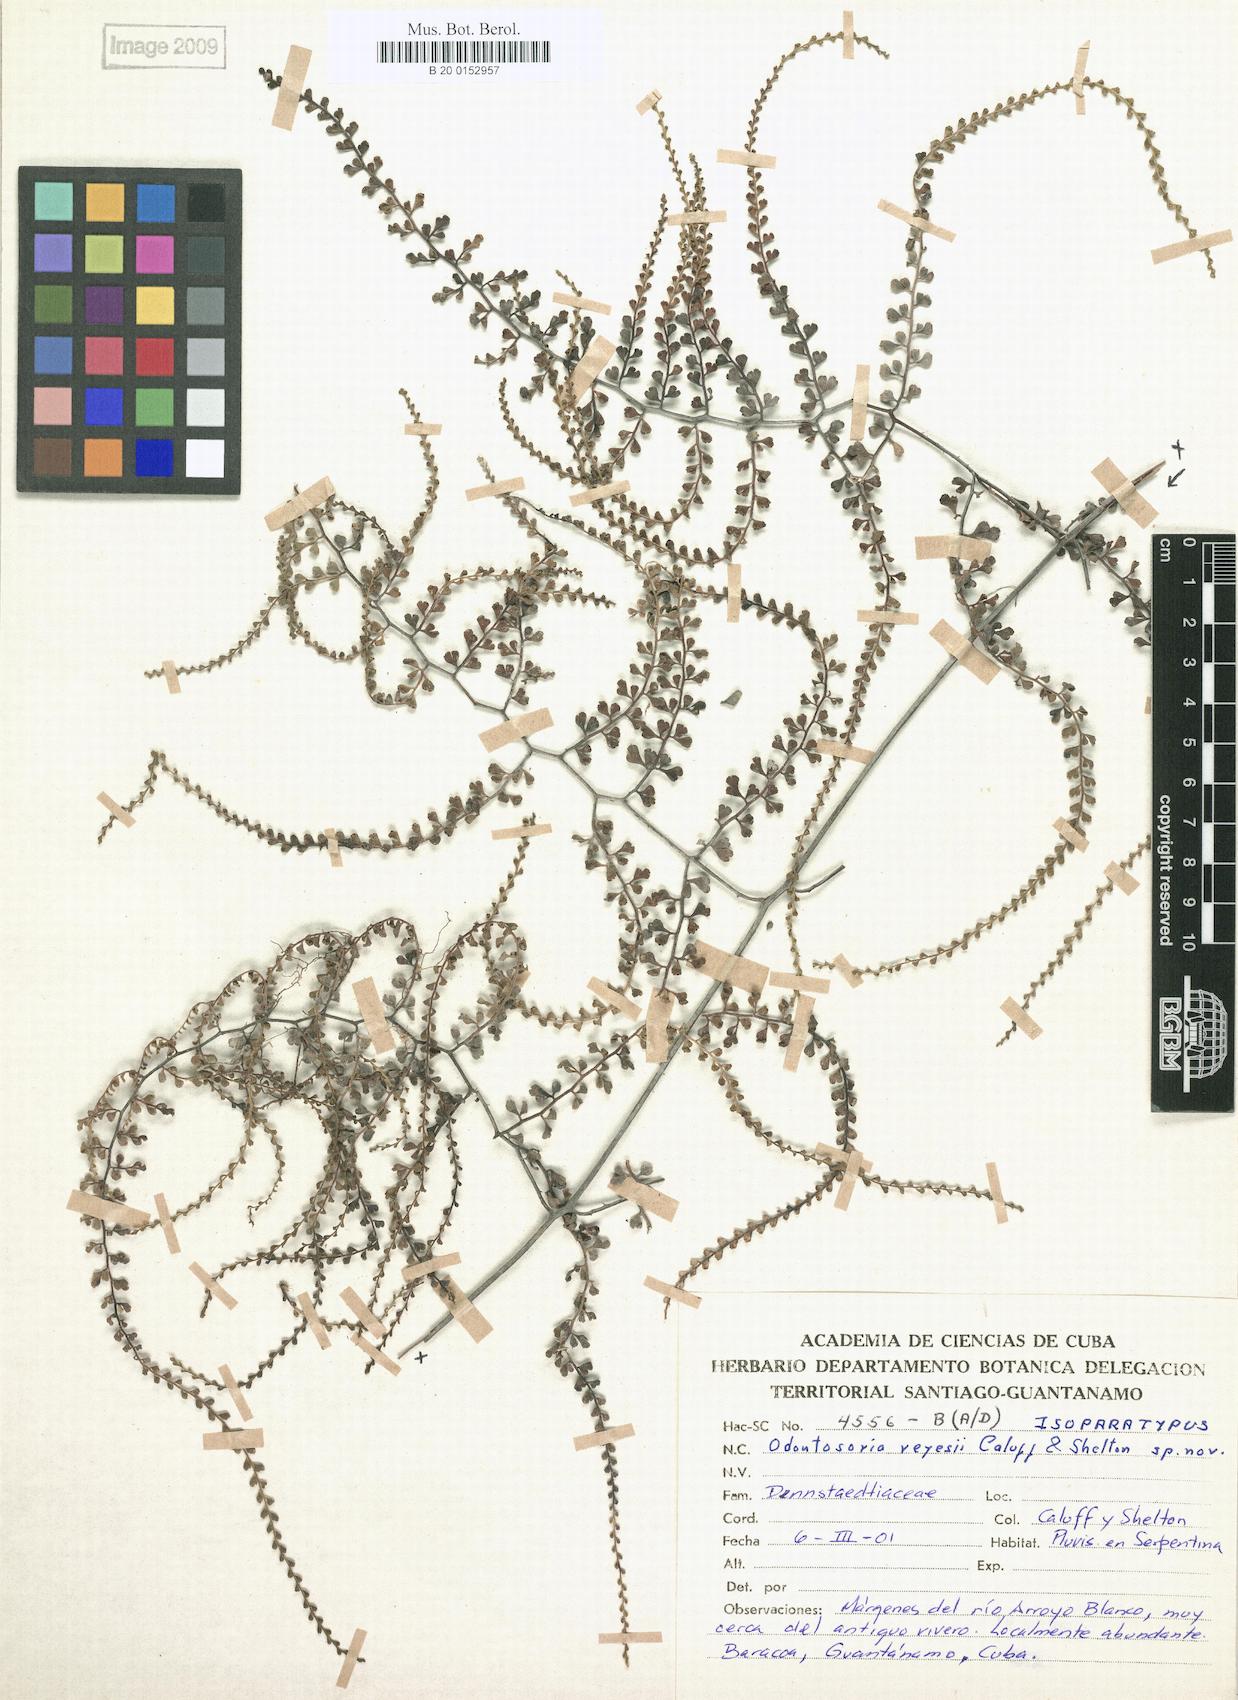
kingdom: Plantae
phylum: Tracheophyta
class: Polypodiopsida
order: Polypodiales
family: Lindsaeaceae
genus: Odontosoria
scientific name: Odontosoria reyesii
